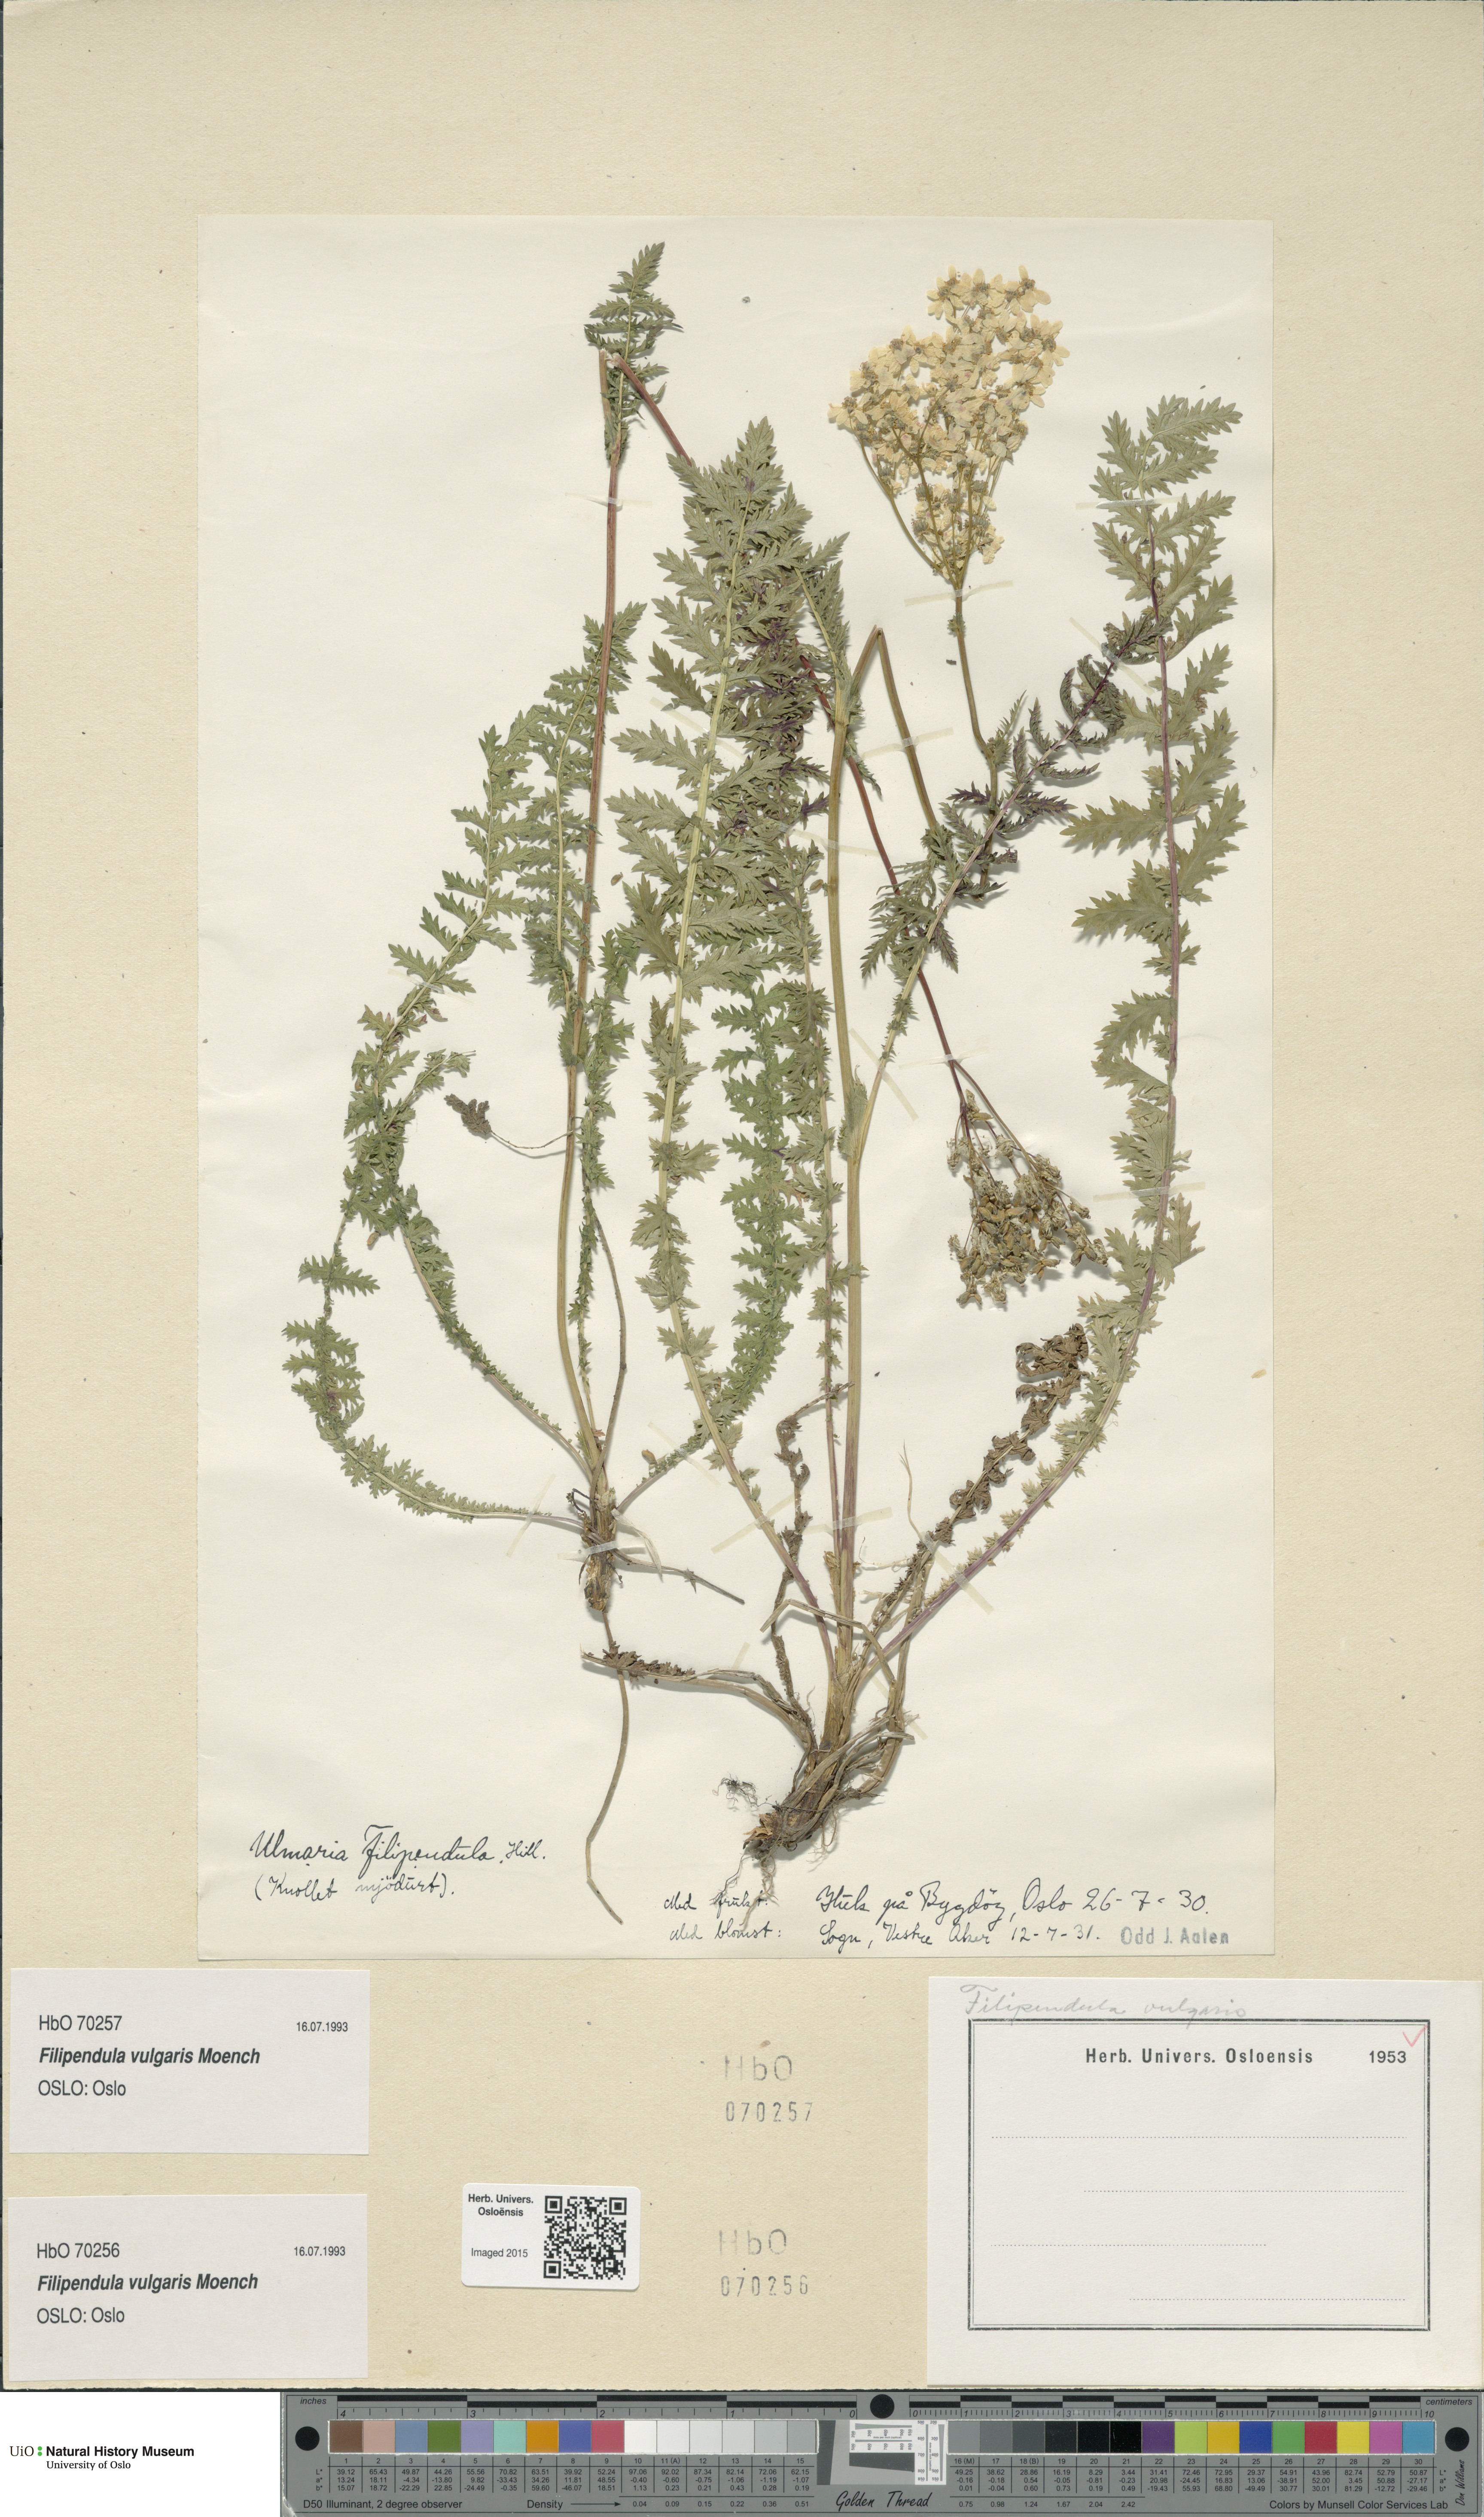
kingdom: Plantae
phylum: Tracheophyta
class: Magnoliopsida
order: Rosales
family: Rosaceae
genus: Filipendula
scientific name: Filipendula vulgaris
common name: Dropwort
